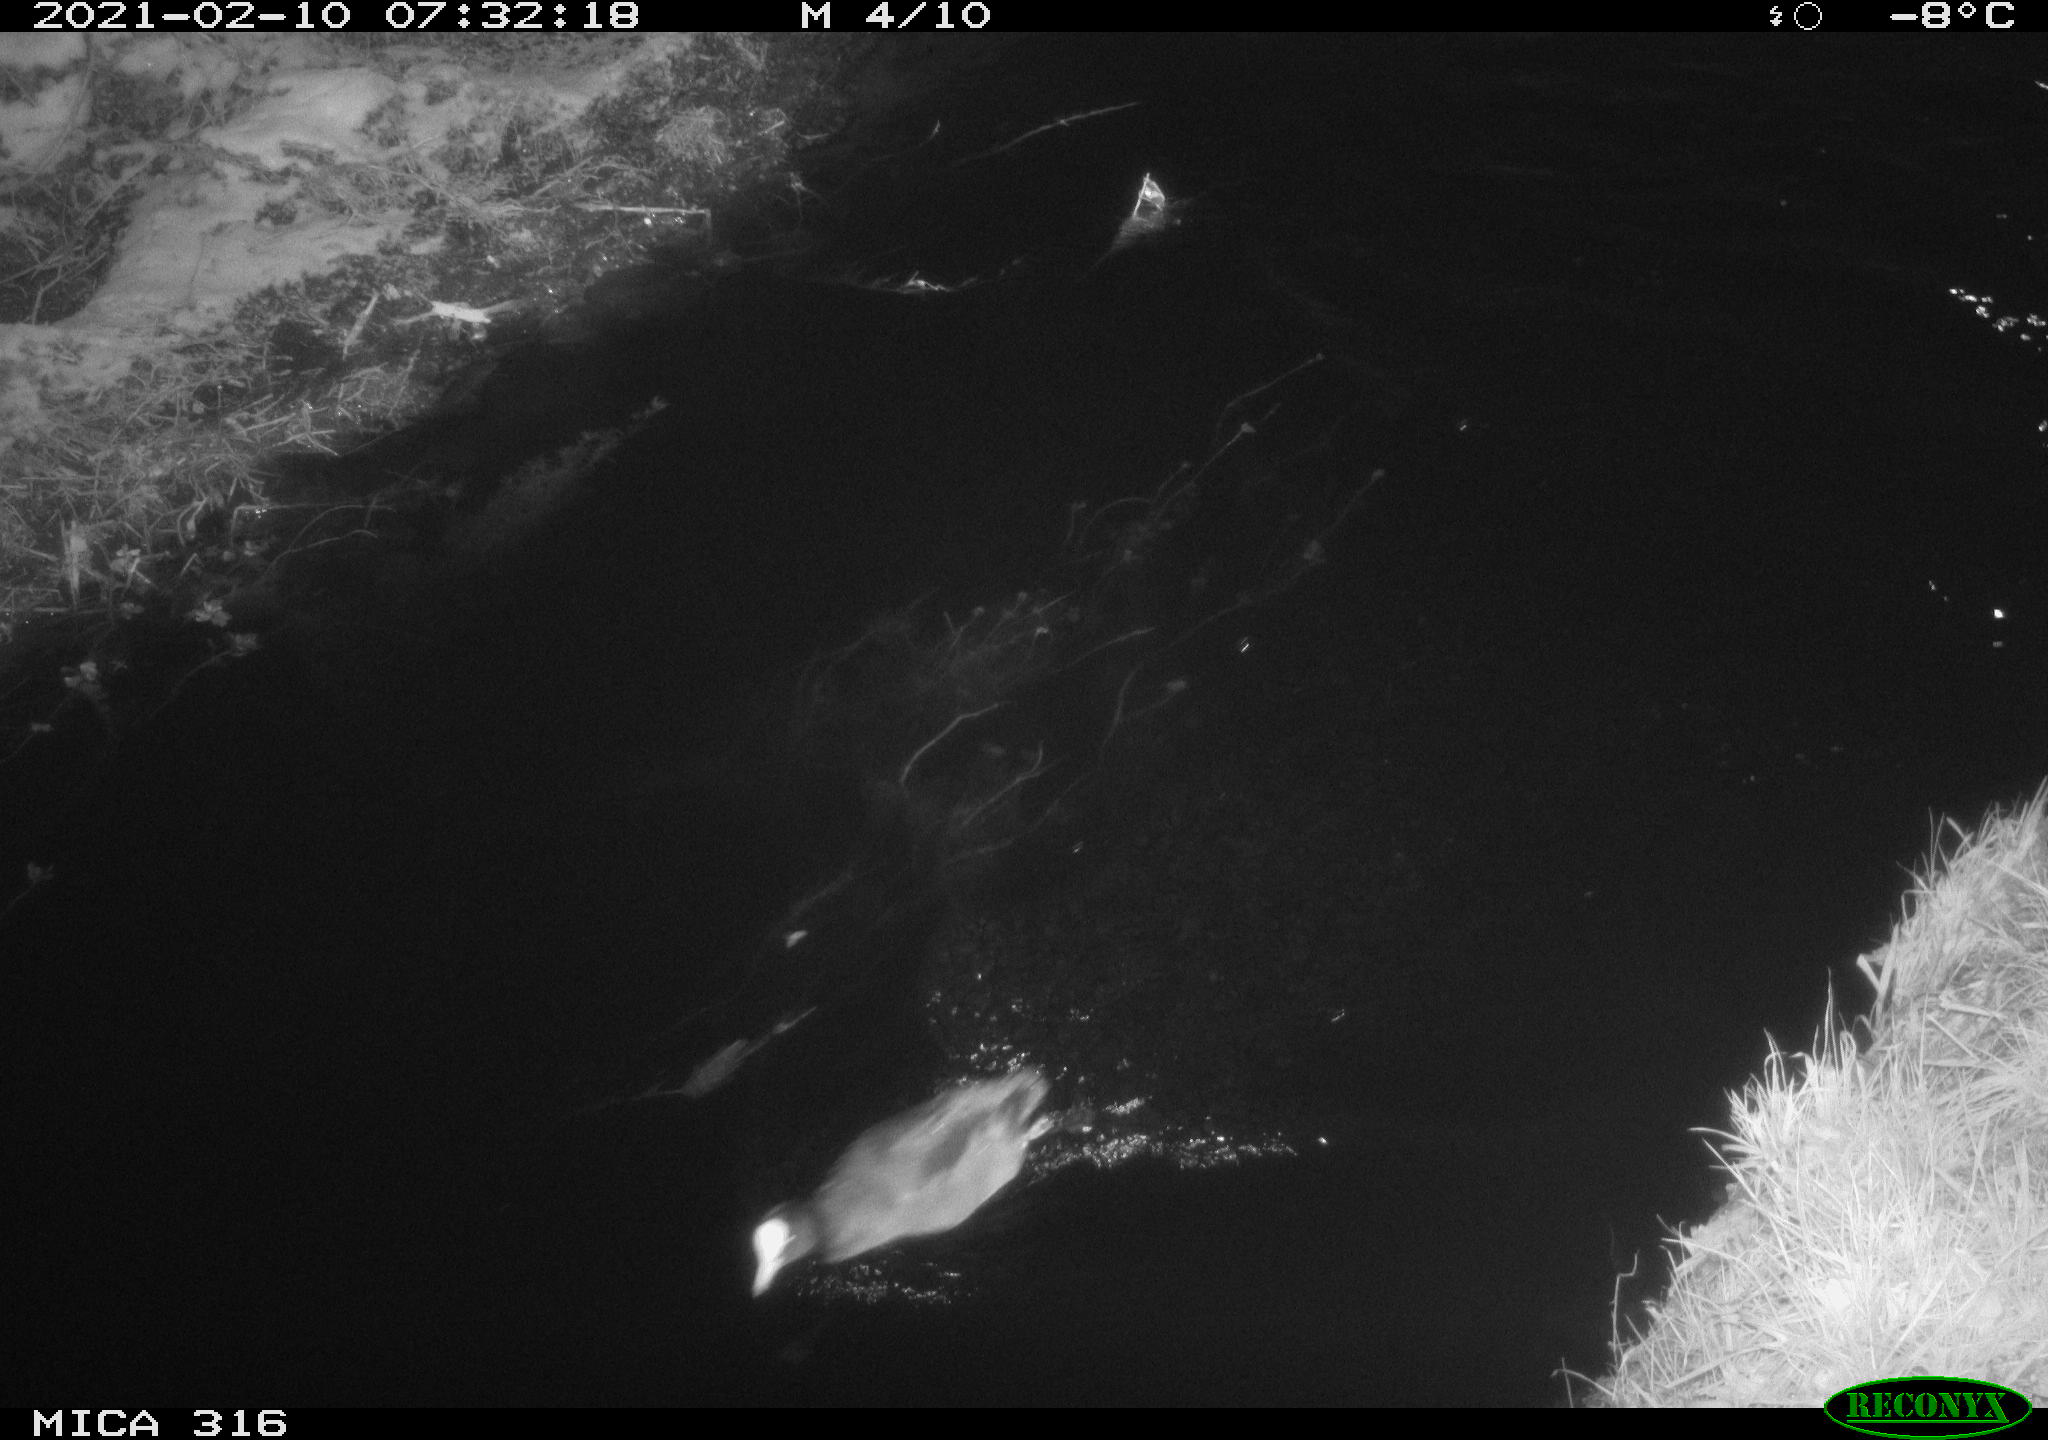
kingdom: Animalia
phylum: Chordata
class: Aves
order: Gruiformes
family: Rallidae
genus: Gallinula
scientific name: Gallinula chloropus
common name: Common moorhen
